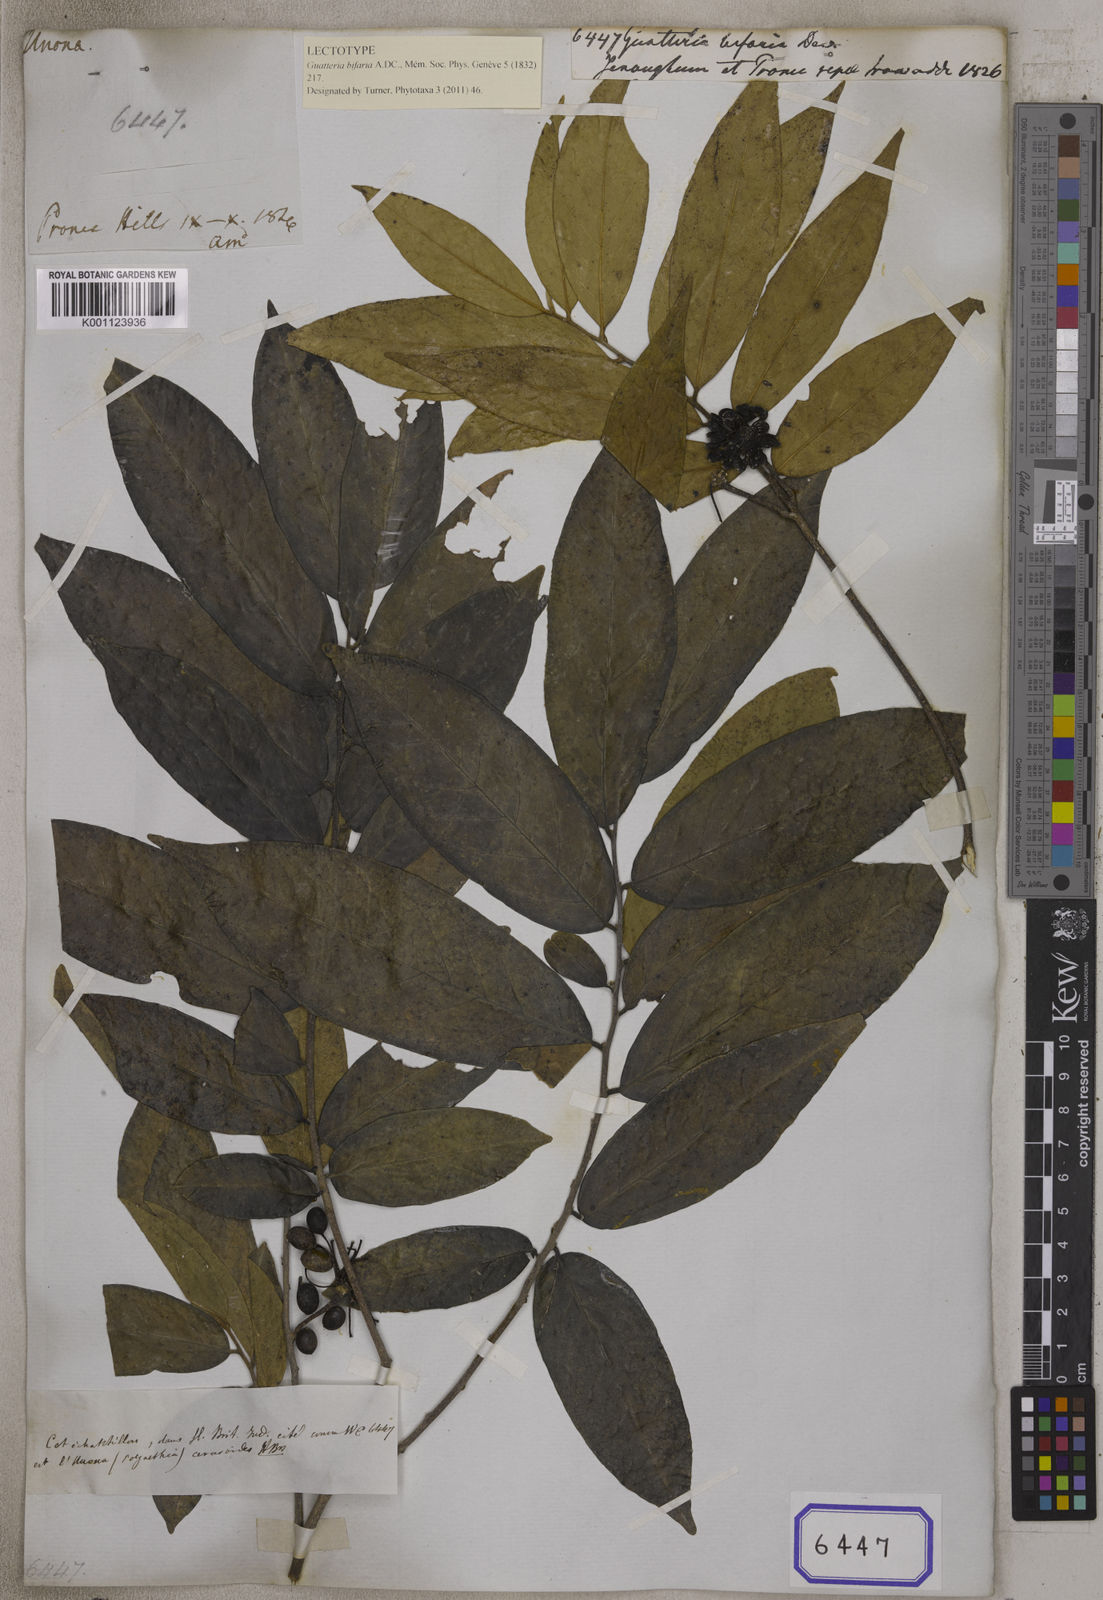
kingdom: Plantae
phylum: Tracheophyta
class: Magnoliopsida
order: Magnoliales
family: Annonaceae
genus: Polyalthia
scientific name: Polyalthia bifaria
